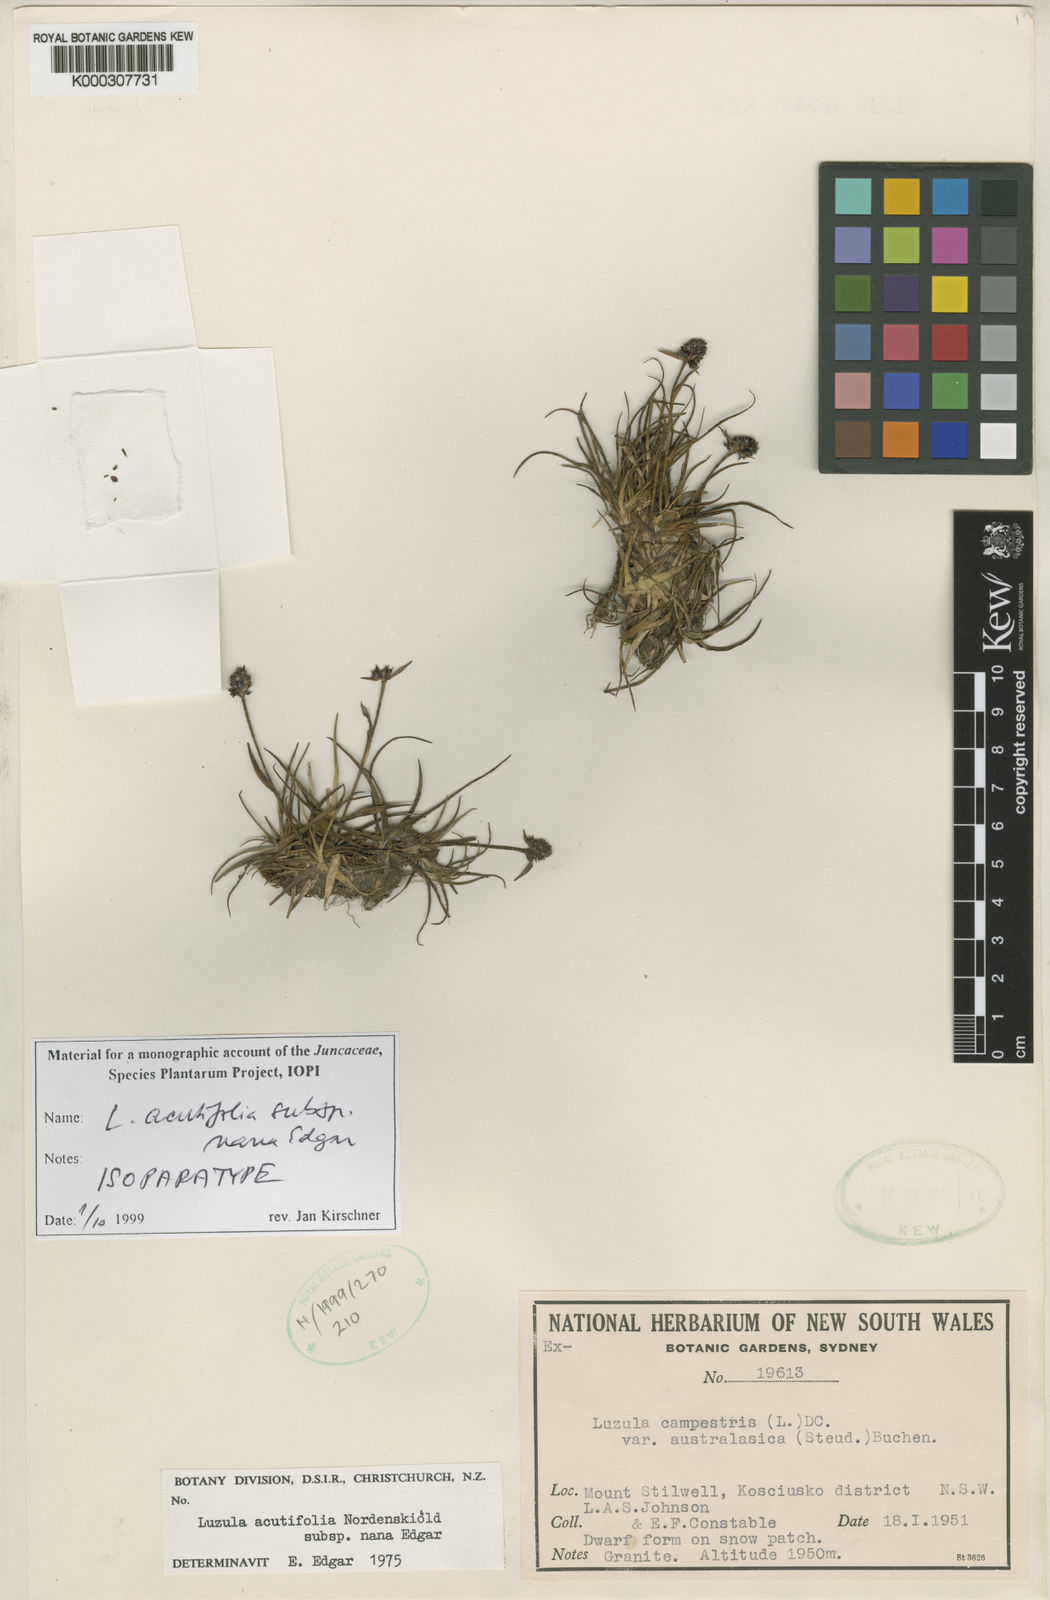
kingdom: Plantae
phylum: Tracheophyta
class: Liliopsida
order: Poales
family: Juncaceae
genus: Luzula
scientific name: Luzula acutifolia
